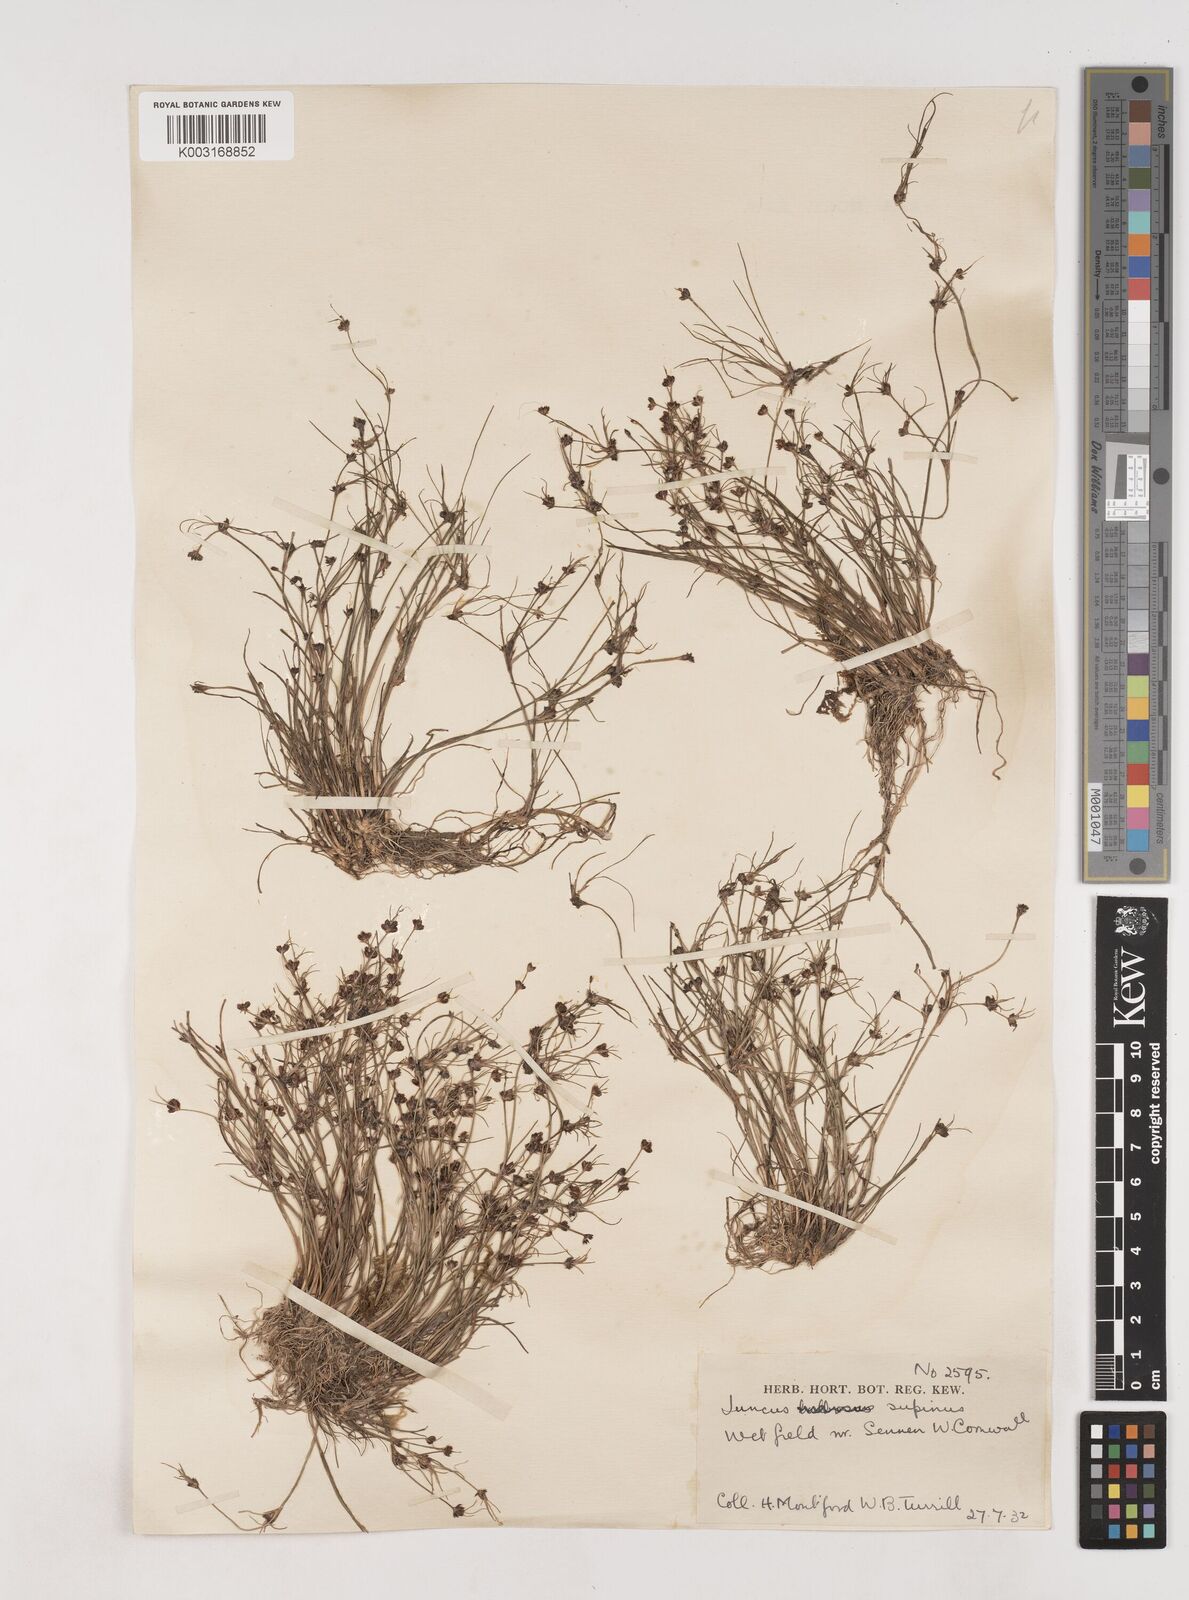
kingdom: Plantae
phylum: Tracheophyta
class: Liliopsida
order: Poales
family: Juncaceae
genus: Juncus
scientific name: Juncus bulbosus
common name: Bulbous rush
